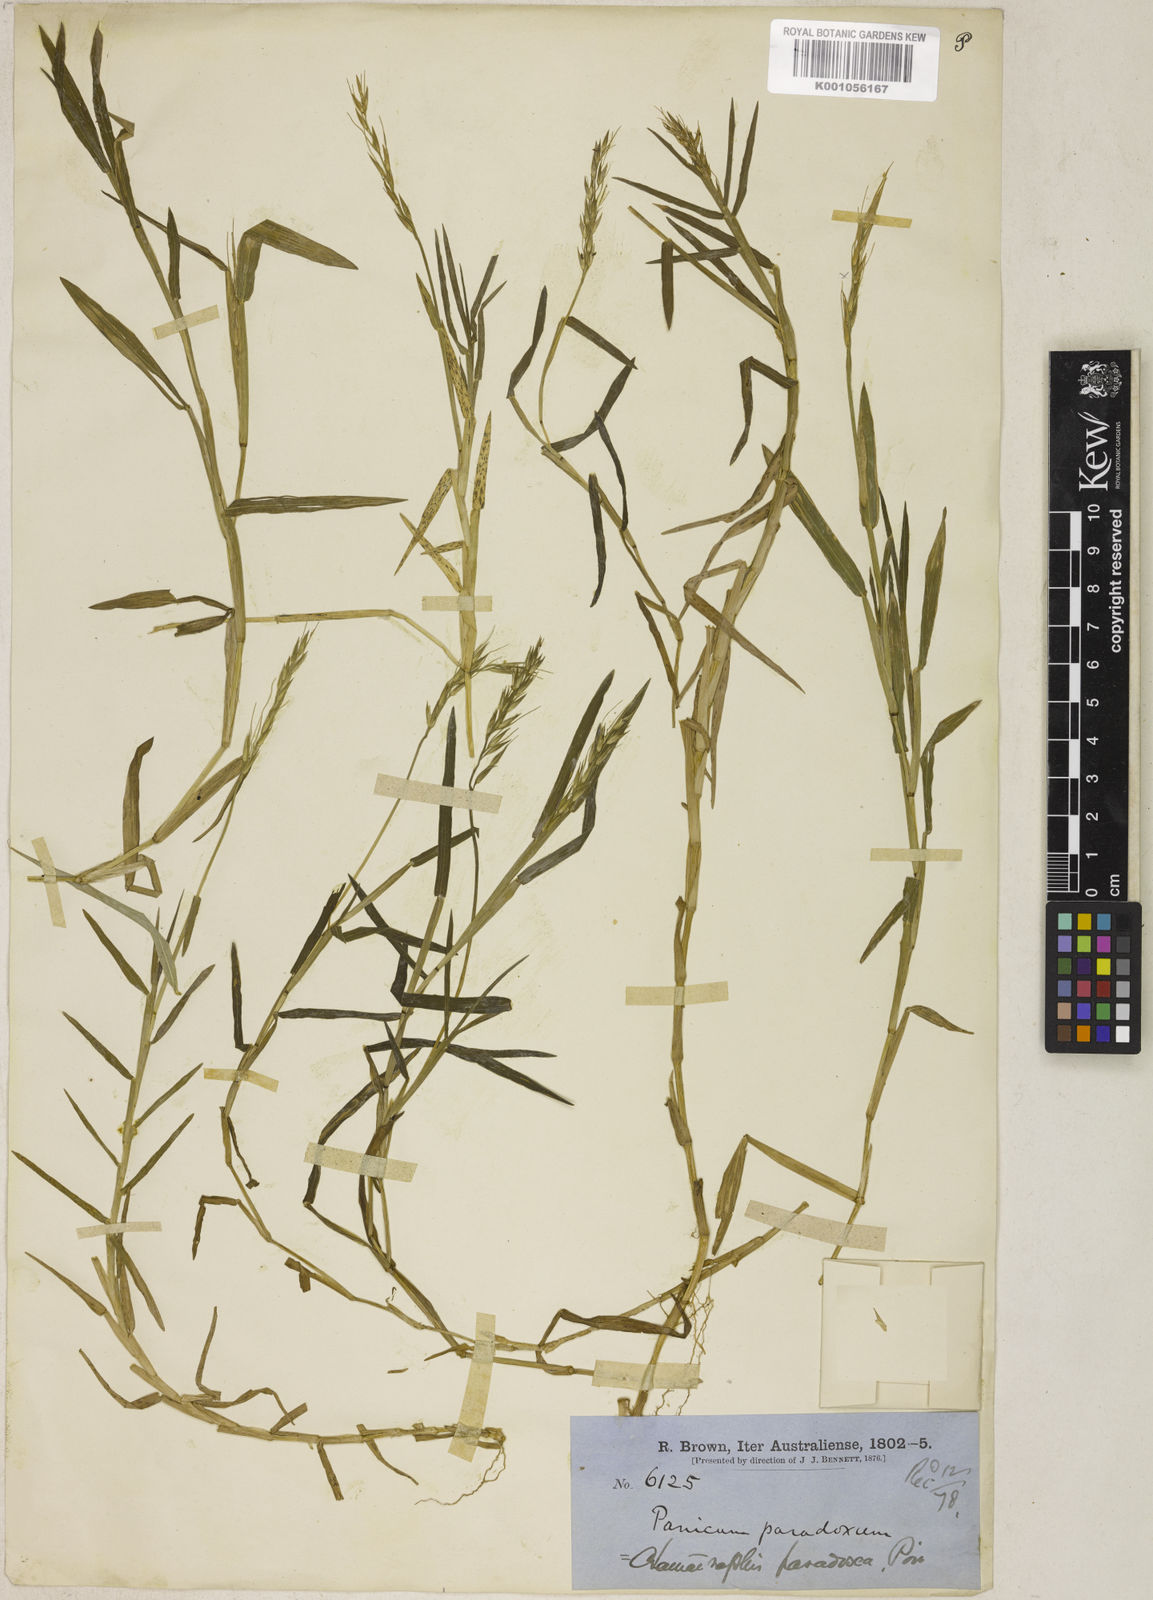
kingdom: Plantae
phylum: Tracheophyta
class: Liliopsida
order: Poales
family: Poaceae
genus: Pseudoraphis
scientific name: Pseudoraphis paradoxa
